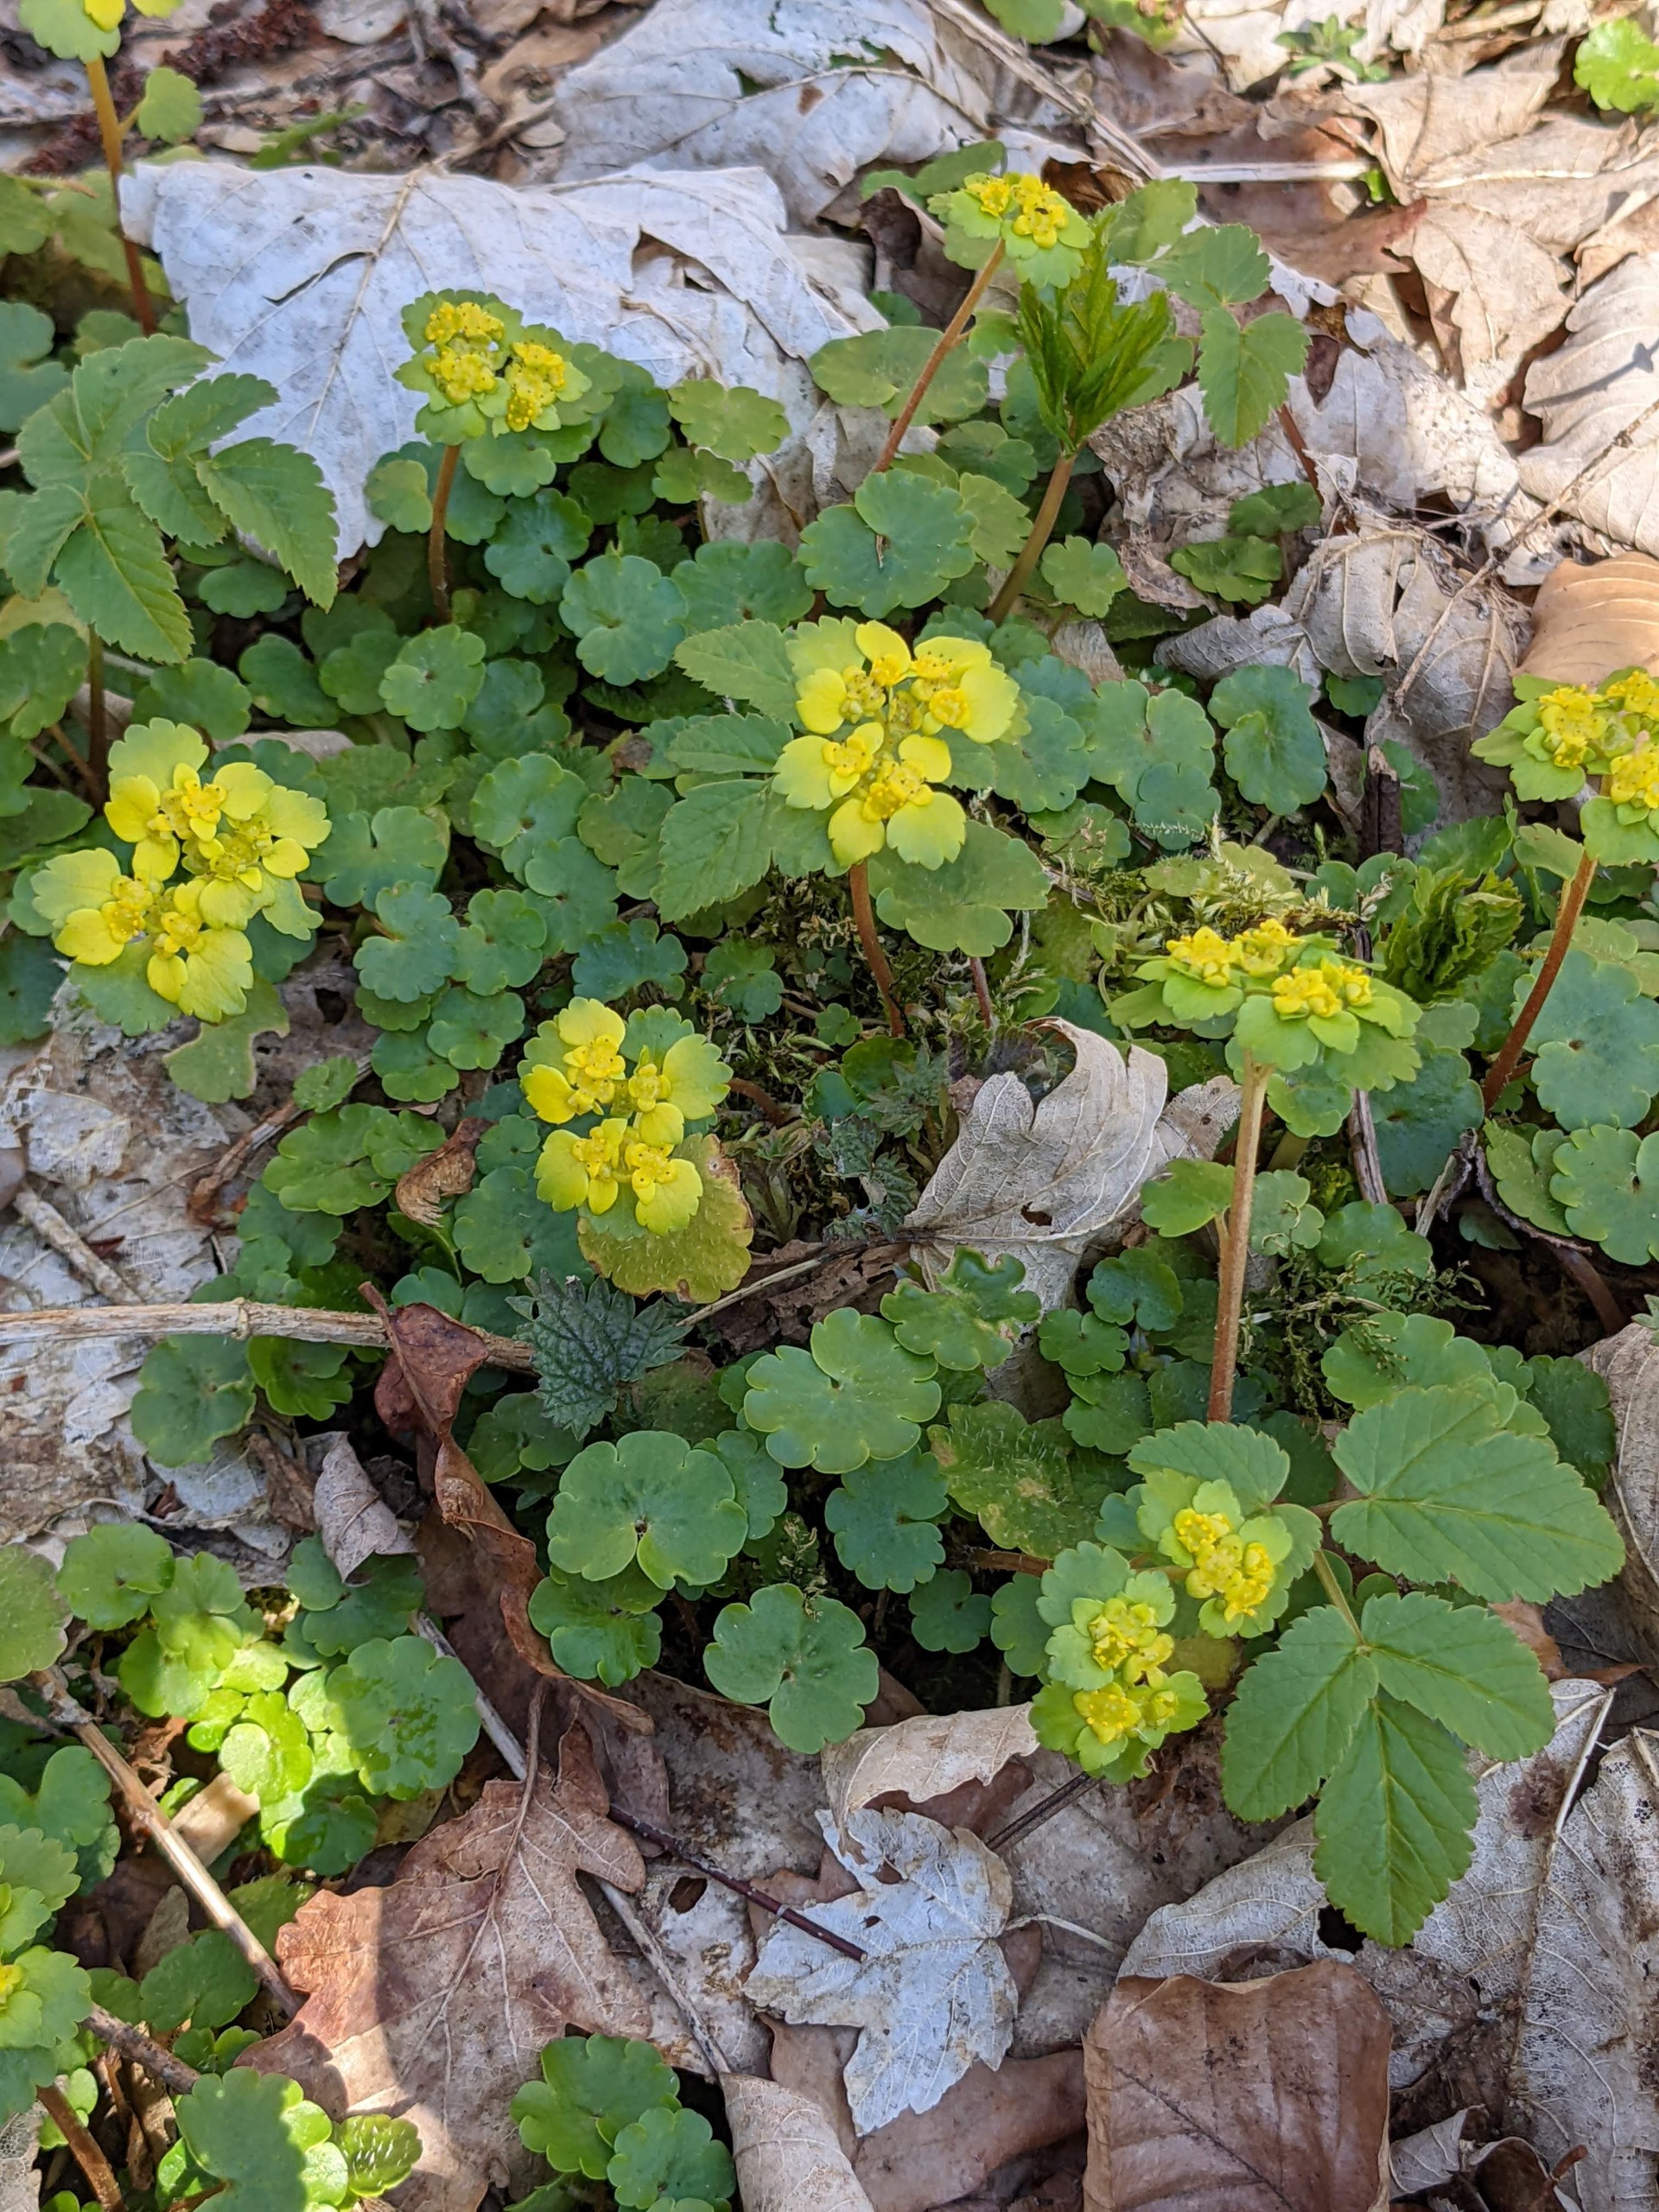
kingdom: Plantae
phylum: Tracheophyta
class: Magnoliopsida
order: Saxifragales
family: Saxifragaceae
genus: Chrysosplenium
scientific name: Chrysosplenium alternifolium
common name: Almindelig milturt
